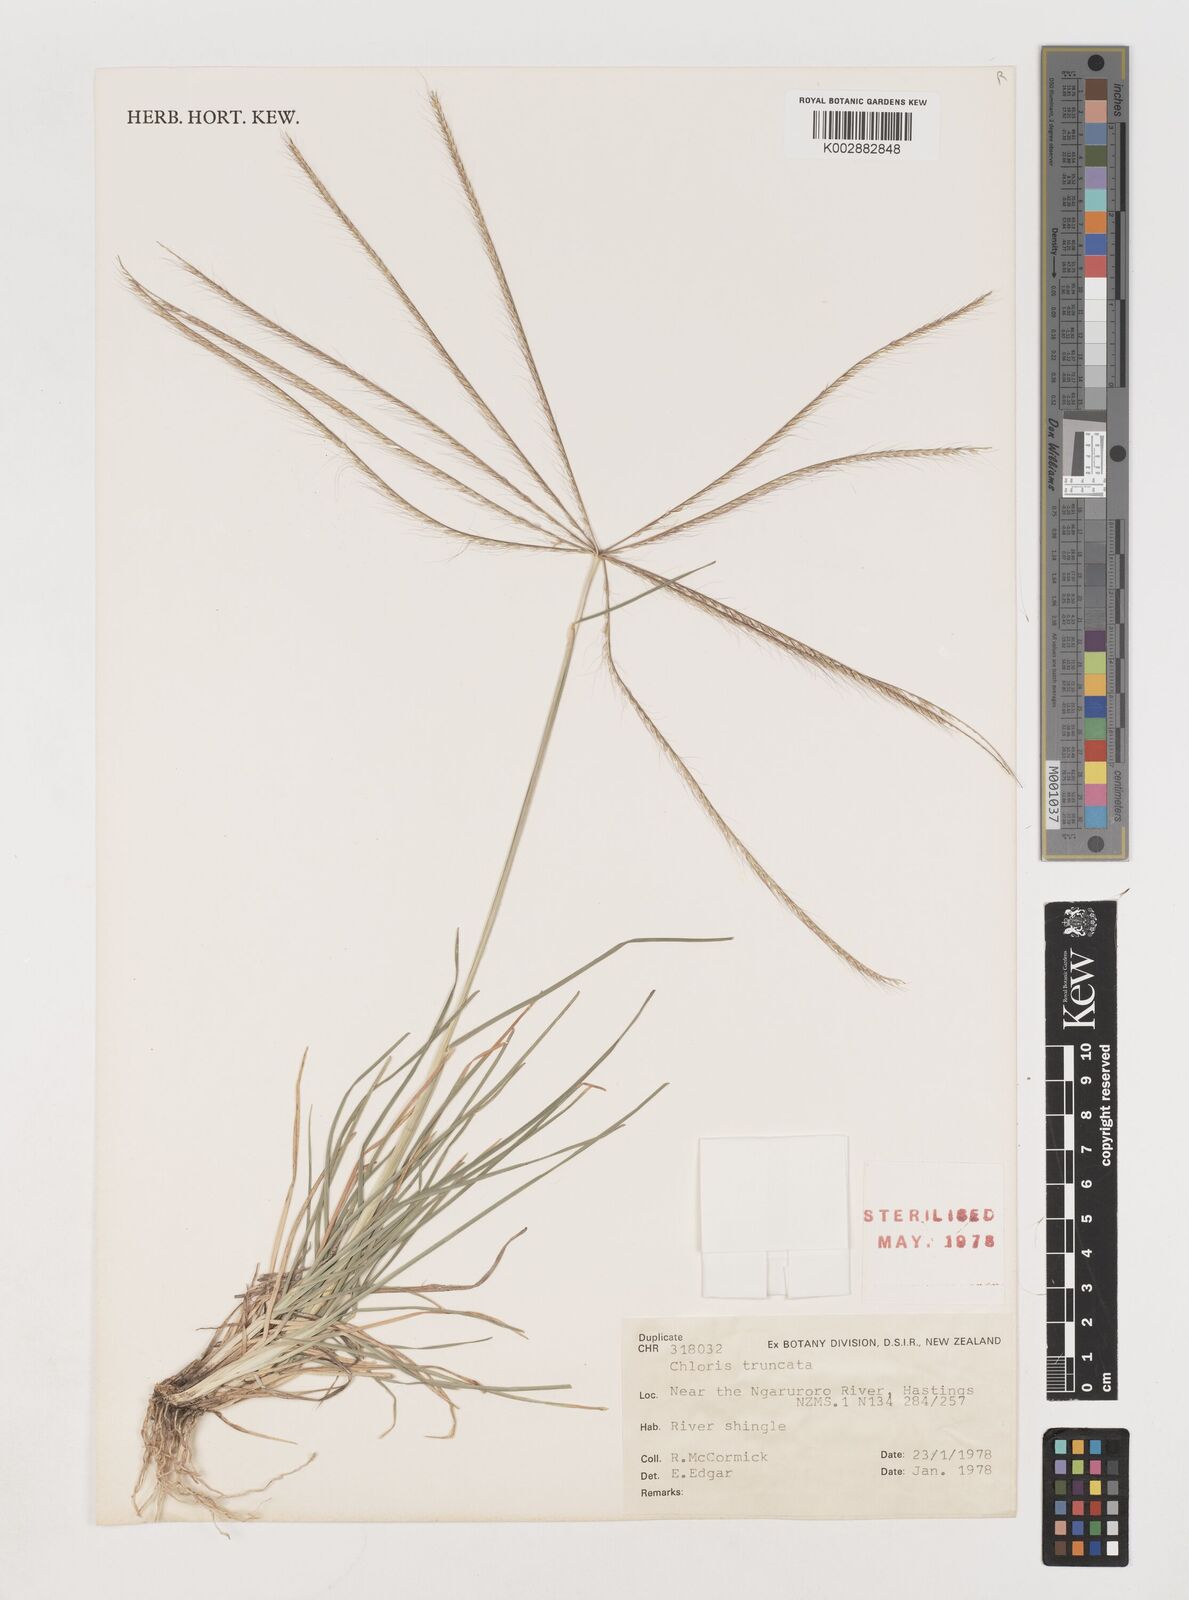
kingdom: Plantae
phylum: Tracheophyta
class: Liliopsida
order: Poales
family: Poaceae
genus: Chloris
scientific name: Chloris truncata
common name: Windmill-grass
